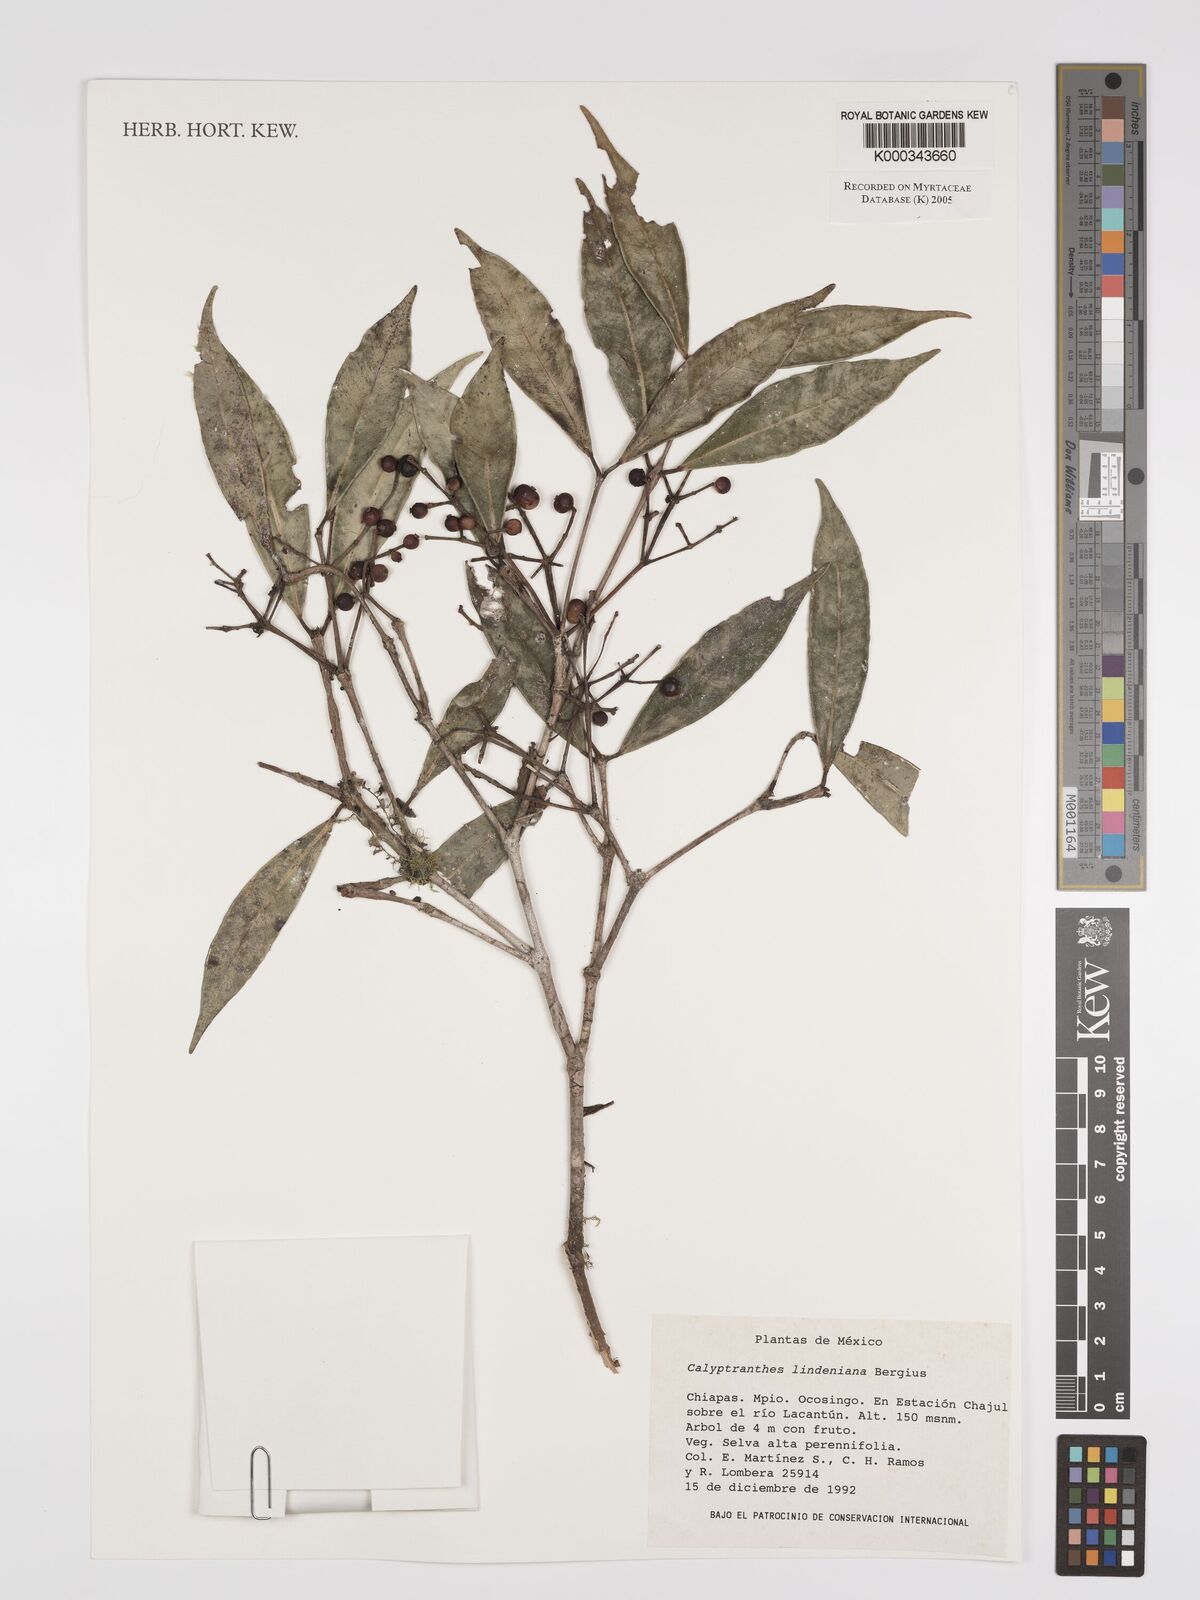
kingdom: Plantae
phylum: Tracheophyta
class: Magnoliopsida
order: Myrtales
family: Myrtaceae
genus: Myrcia
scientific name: Myrcia neolindeniana
